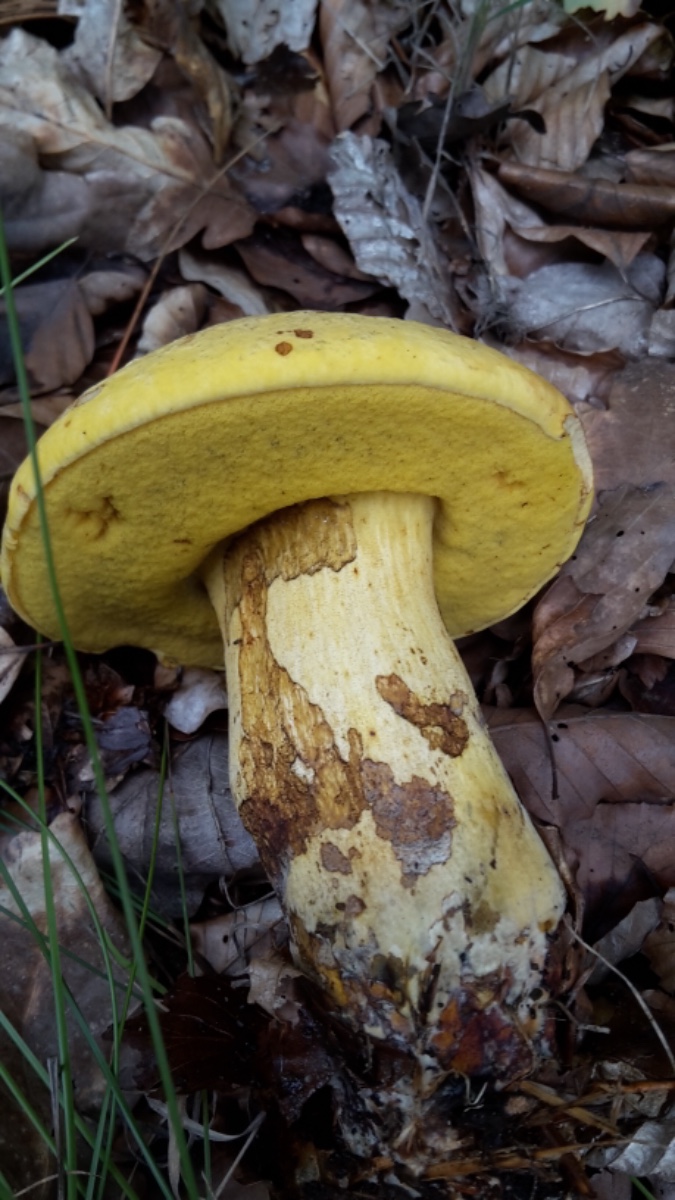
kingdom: Fungi
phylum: Basidiomycota
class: Agaricomycetes
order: Boletales
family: Boletaceae
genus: Neoboletus
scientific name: Neoboletus praestigiator
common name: gul indigorørhat
